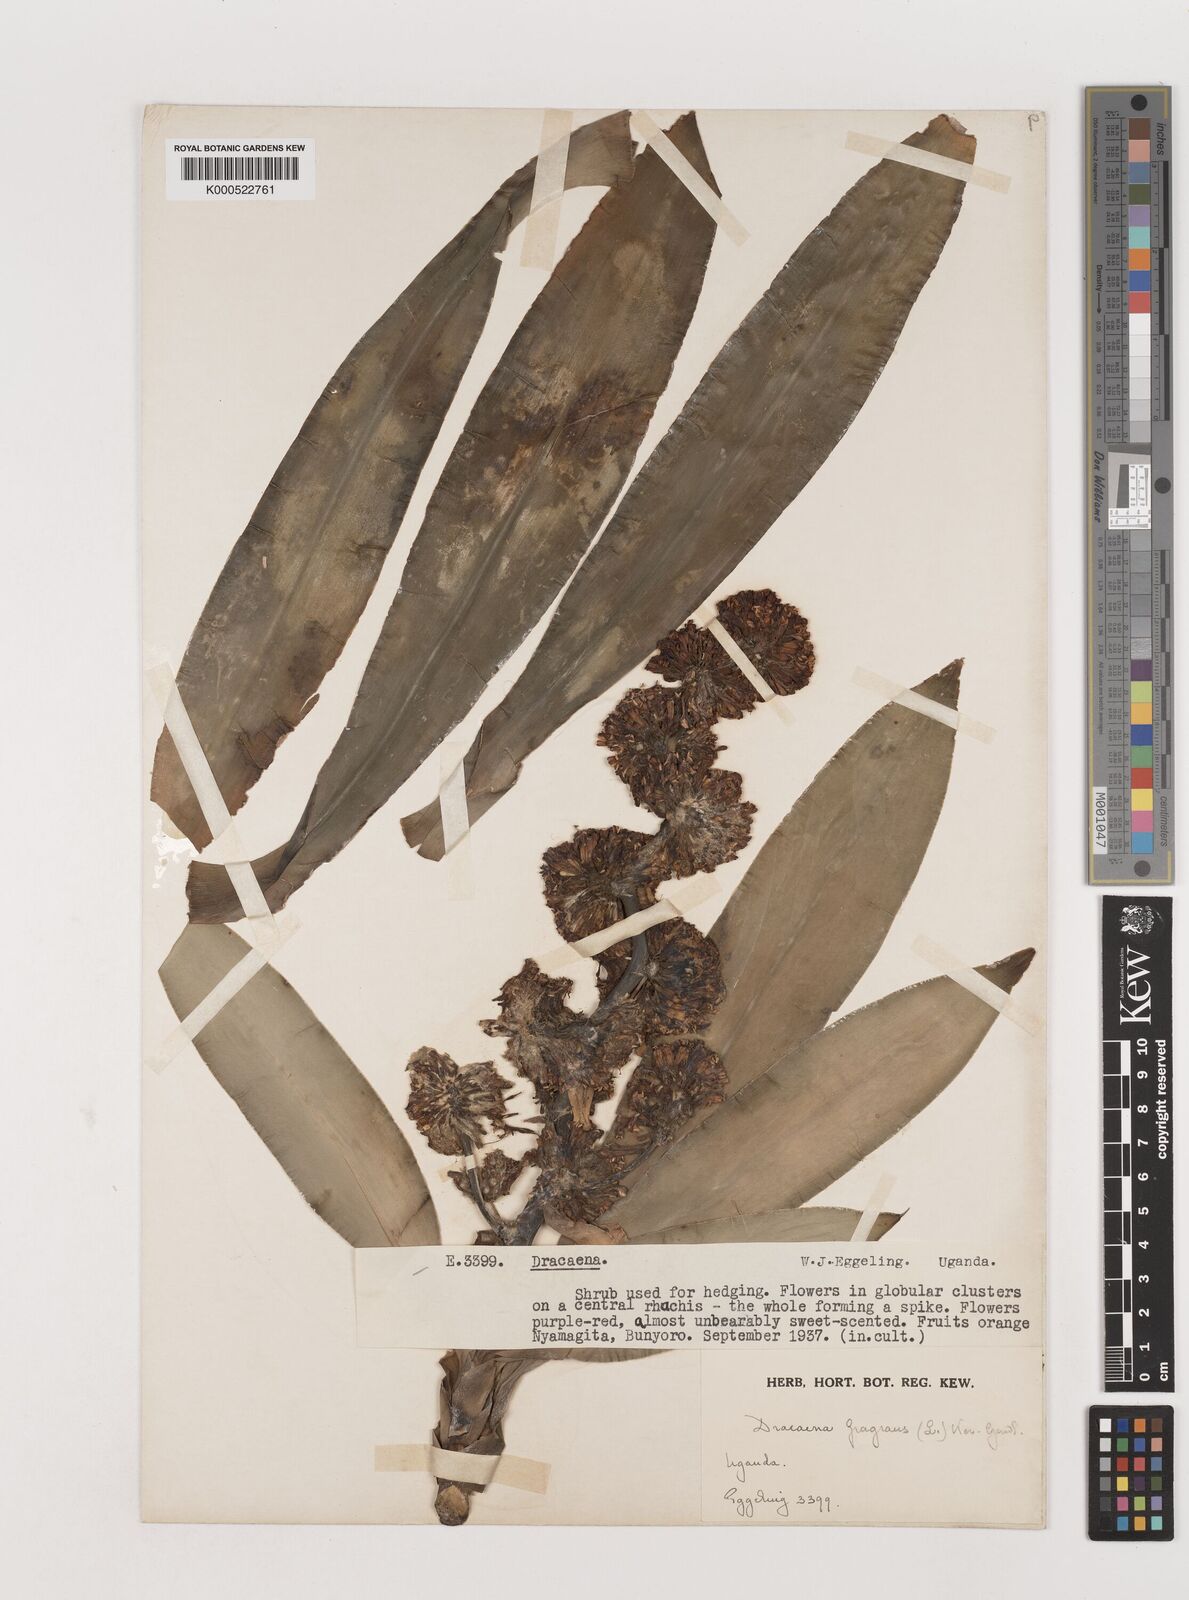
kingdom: Plantae
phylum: Tracheophyta
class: Liliopsida
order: Asparagales
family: Asparagaceae
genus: Dracaena
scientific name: Dracaena fragrans
